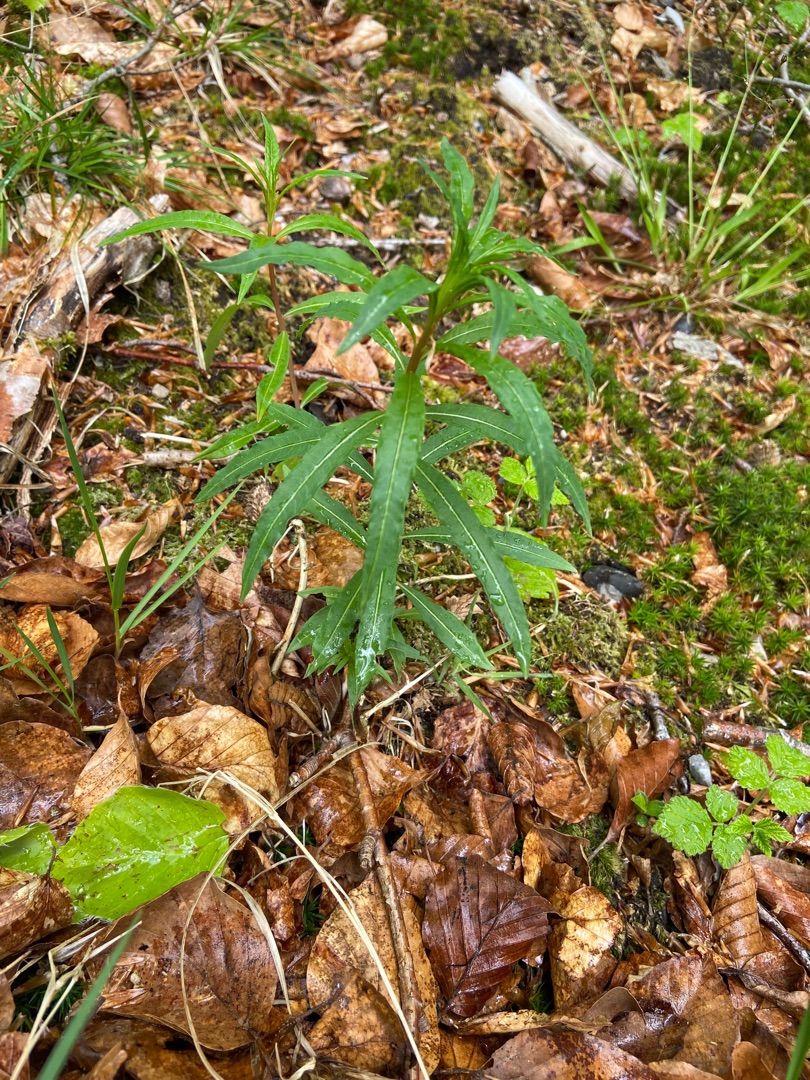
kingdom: Plantae
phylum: Tracheophyta
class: Magnoliopsida
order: Myrtales
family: Onagraceae
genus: Chamaenerion
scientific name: Chamaenerion angustifolium
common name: Gederams
